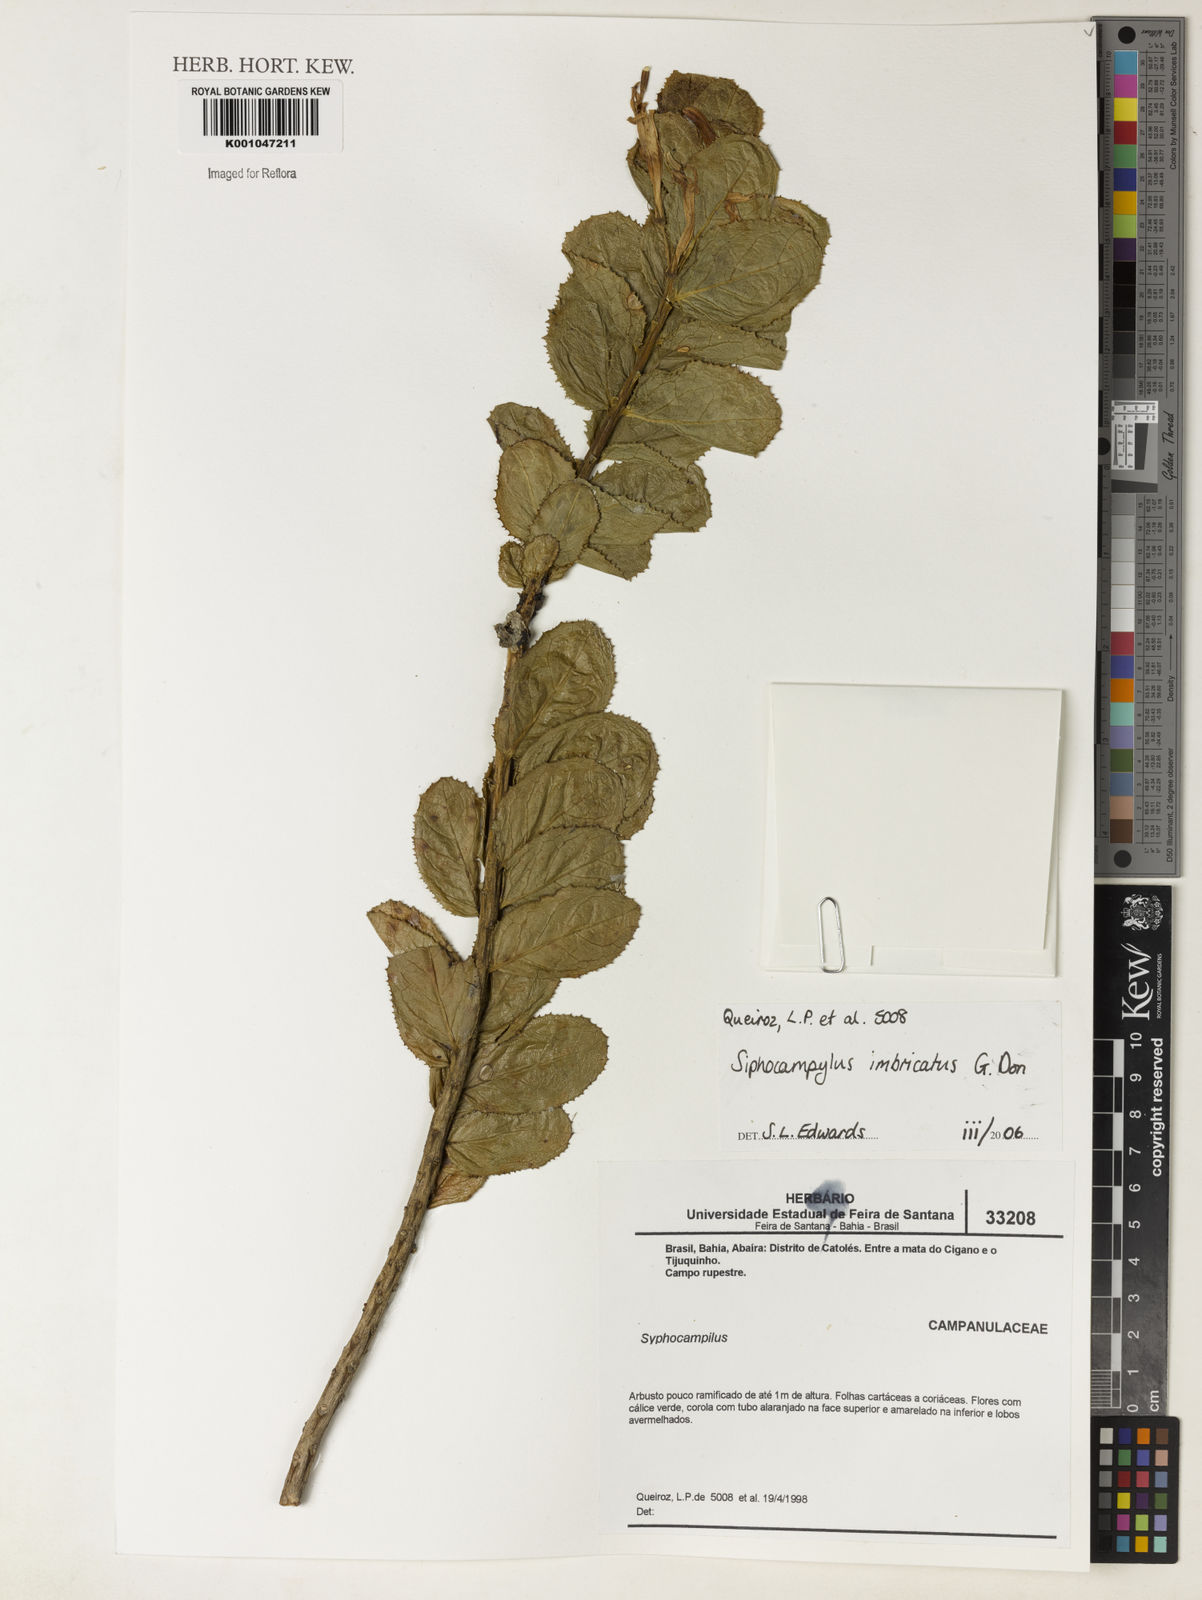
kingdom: Plantae
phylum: Tracheophyta
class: Magnoliopsida
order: Asterales
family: Campanulaceae
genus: Siphocampylus
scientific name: Siphocampylus imbricatus
